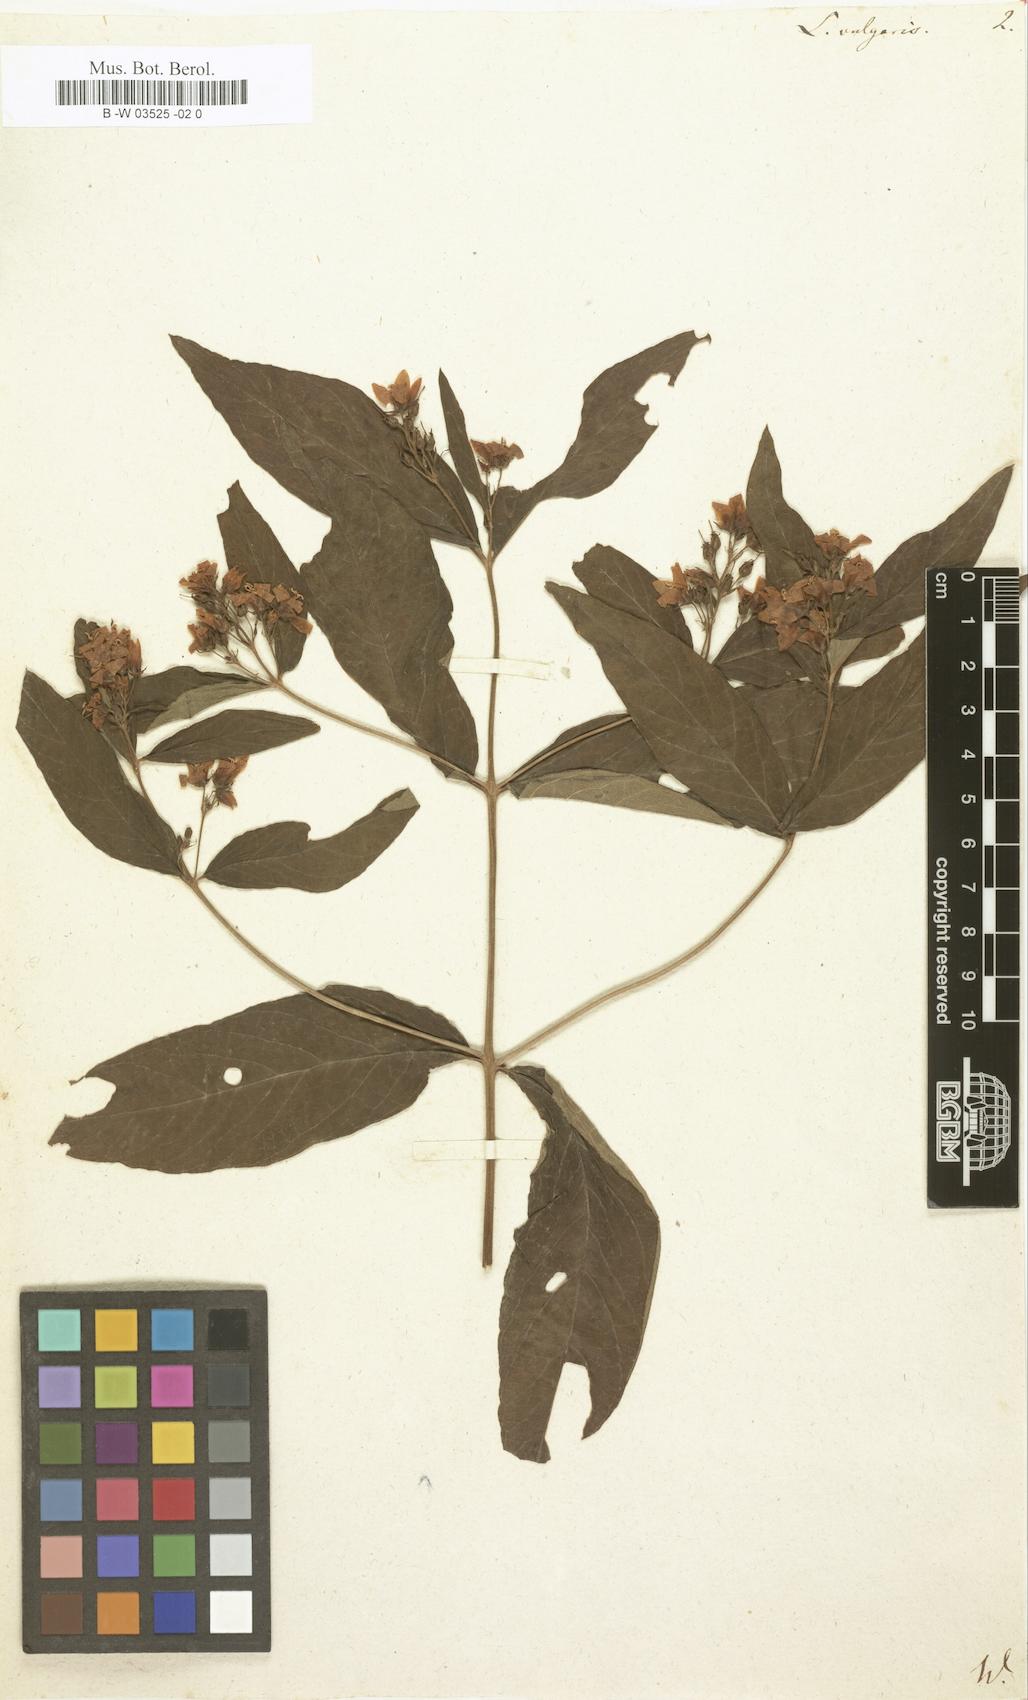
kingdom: Plantae
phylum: Tracheophyta
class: Magnoliopsida
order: Ericales
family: Primulaceae
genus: Lysimachia
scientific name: Lysimachia vulgaris
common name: Yellow loosestrife
